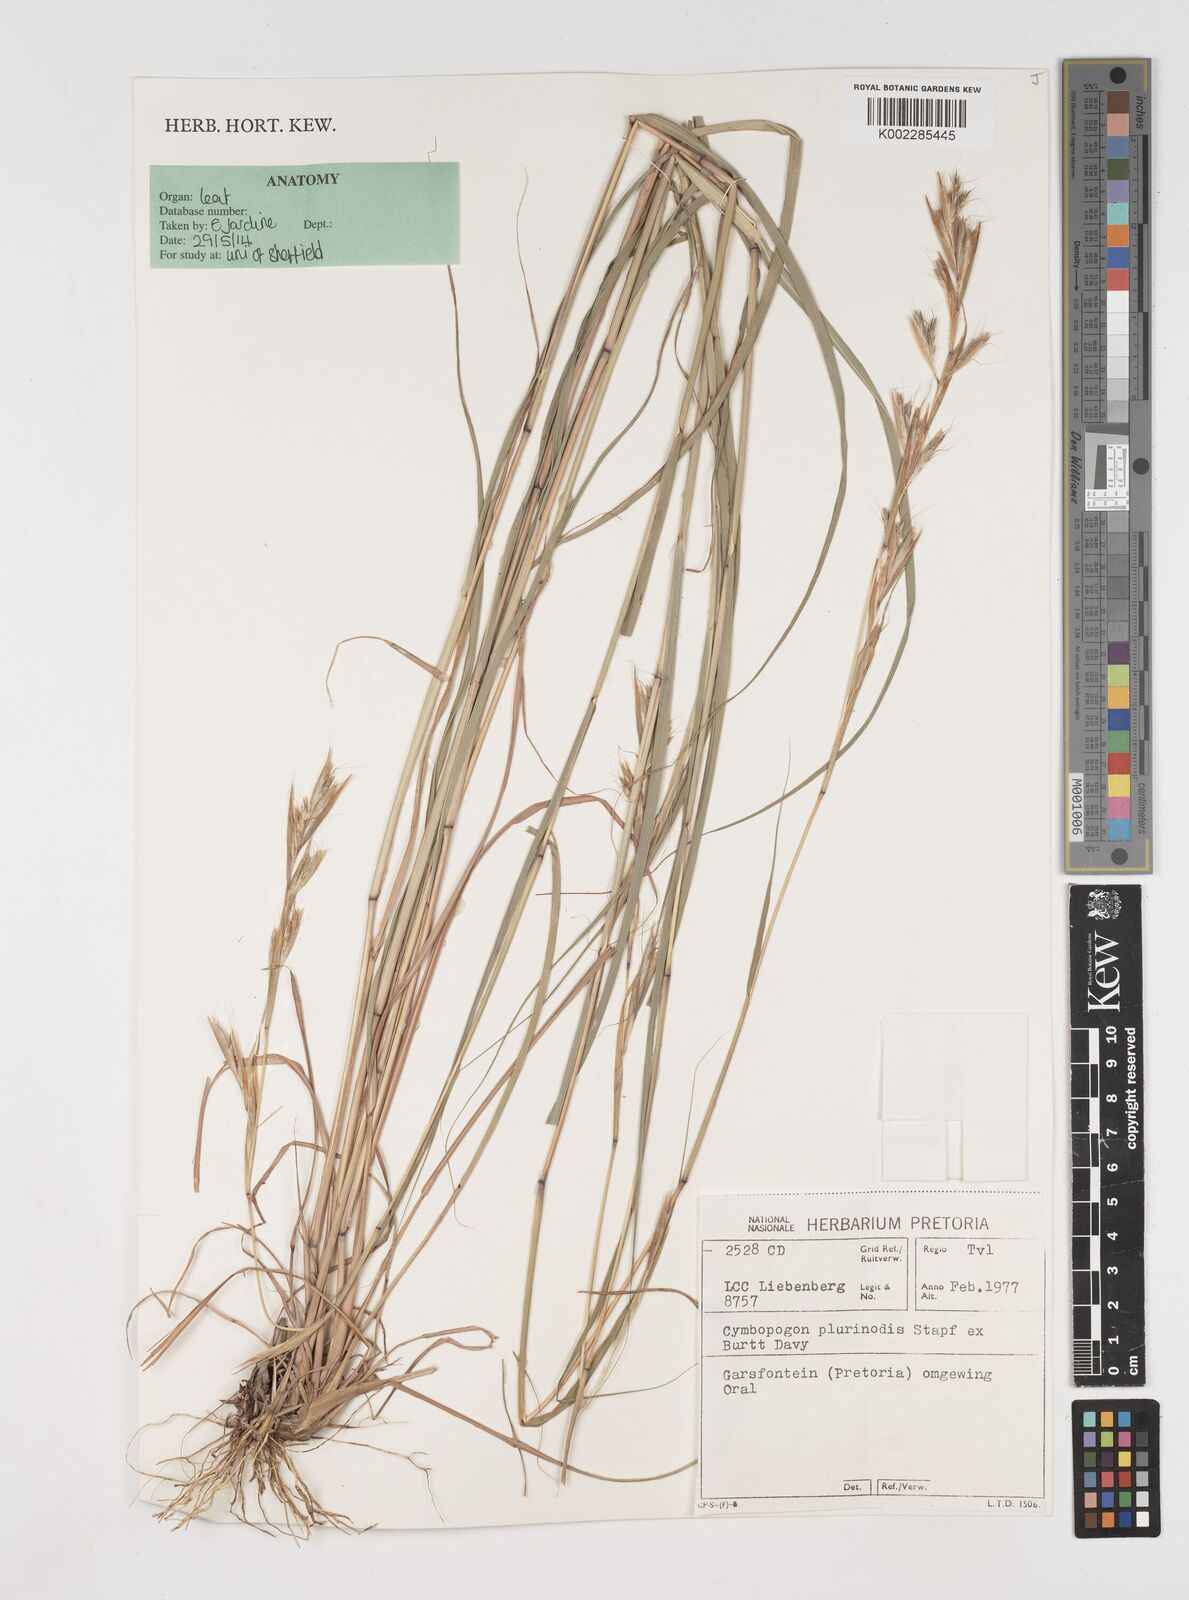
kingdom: Plantae
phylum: Tracheophyta
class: Liliopsida
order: Poales
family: Poaceae
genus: Cymbopogon
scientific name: Cymbopogon pospischilii
